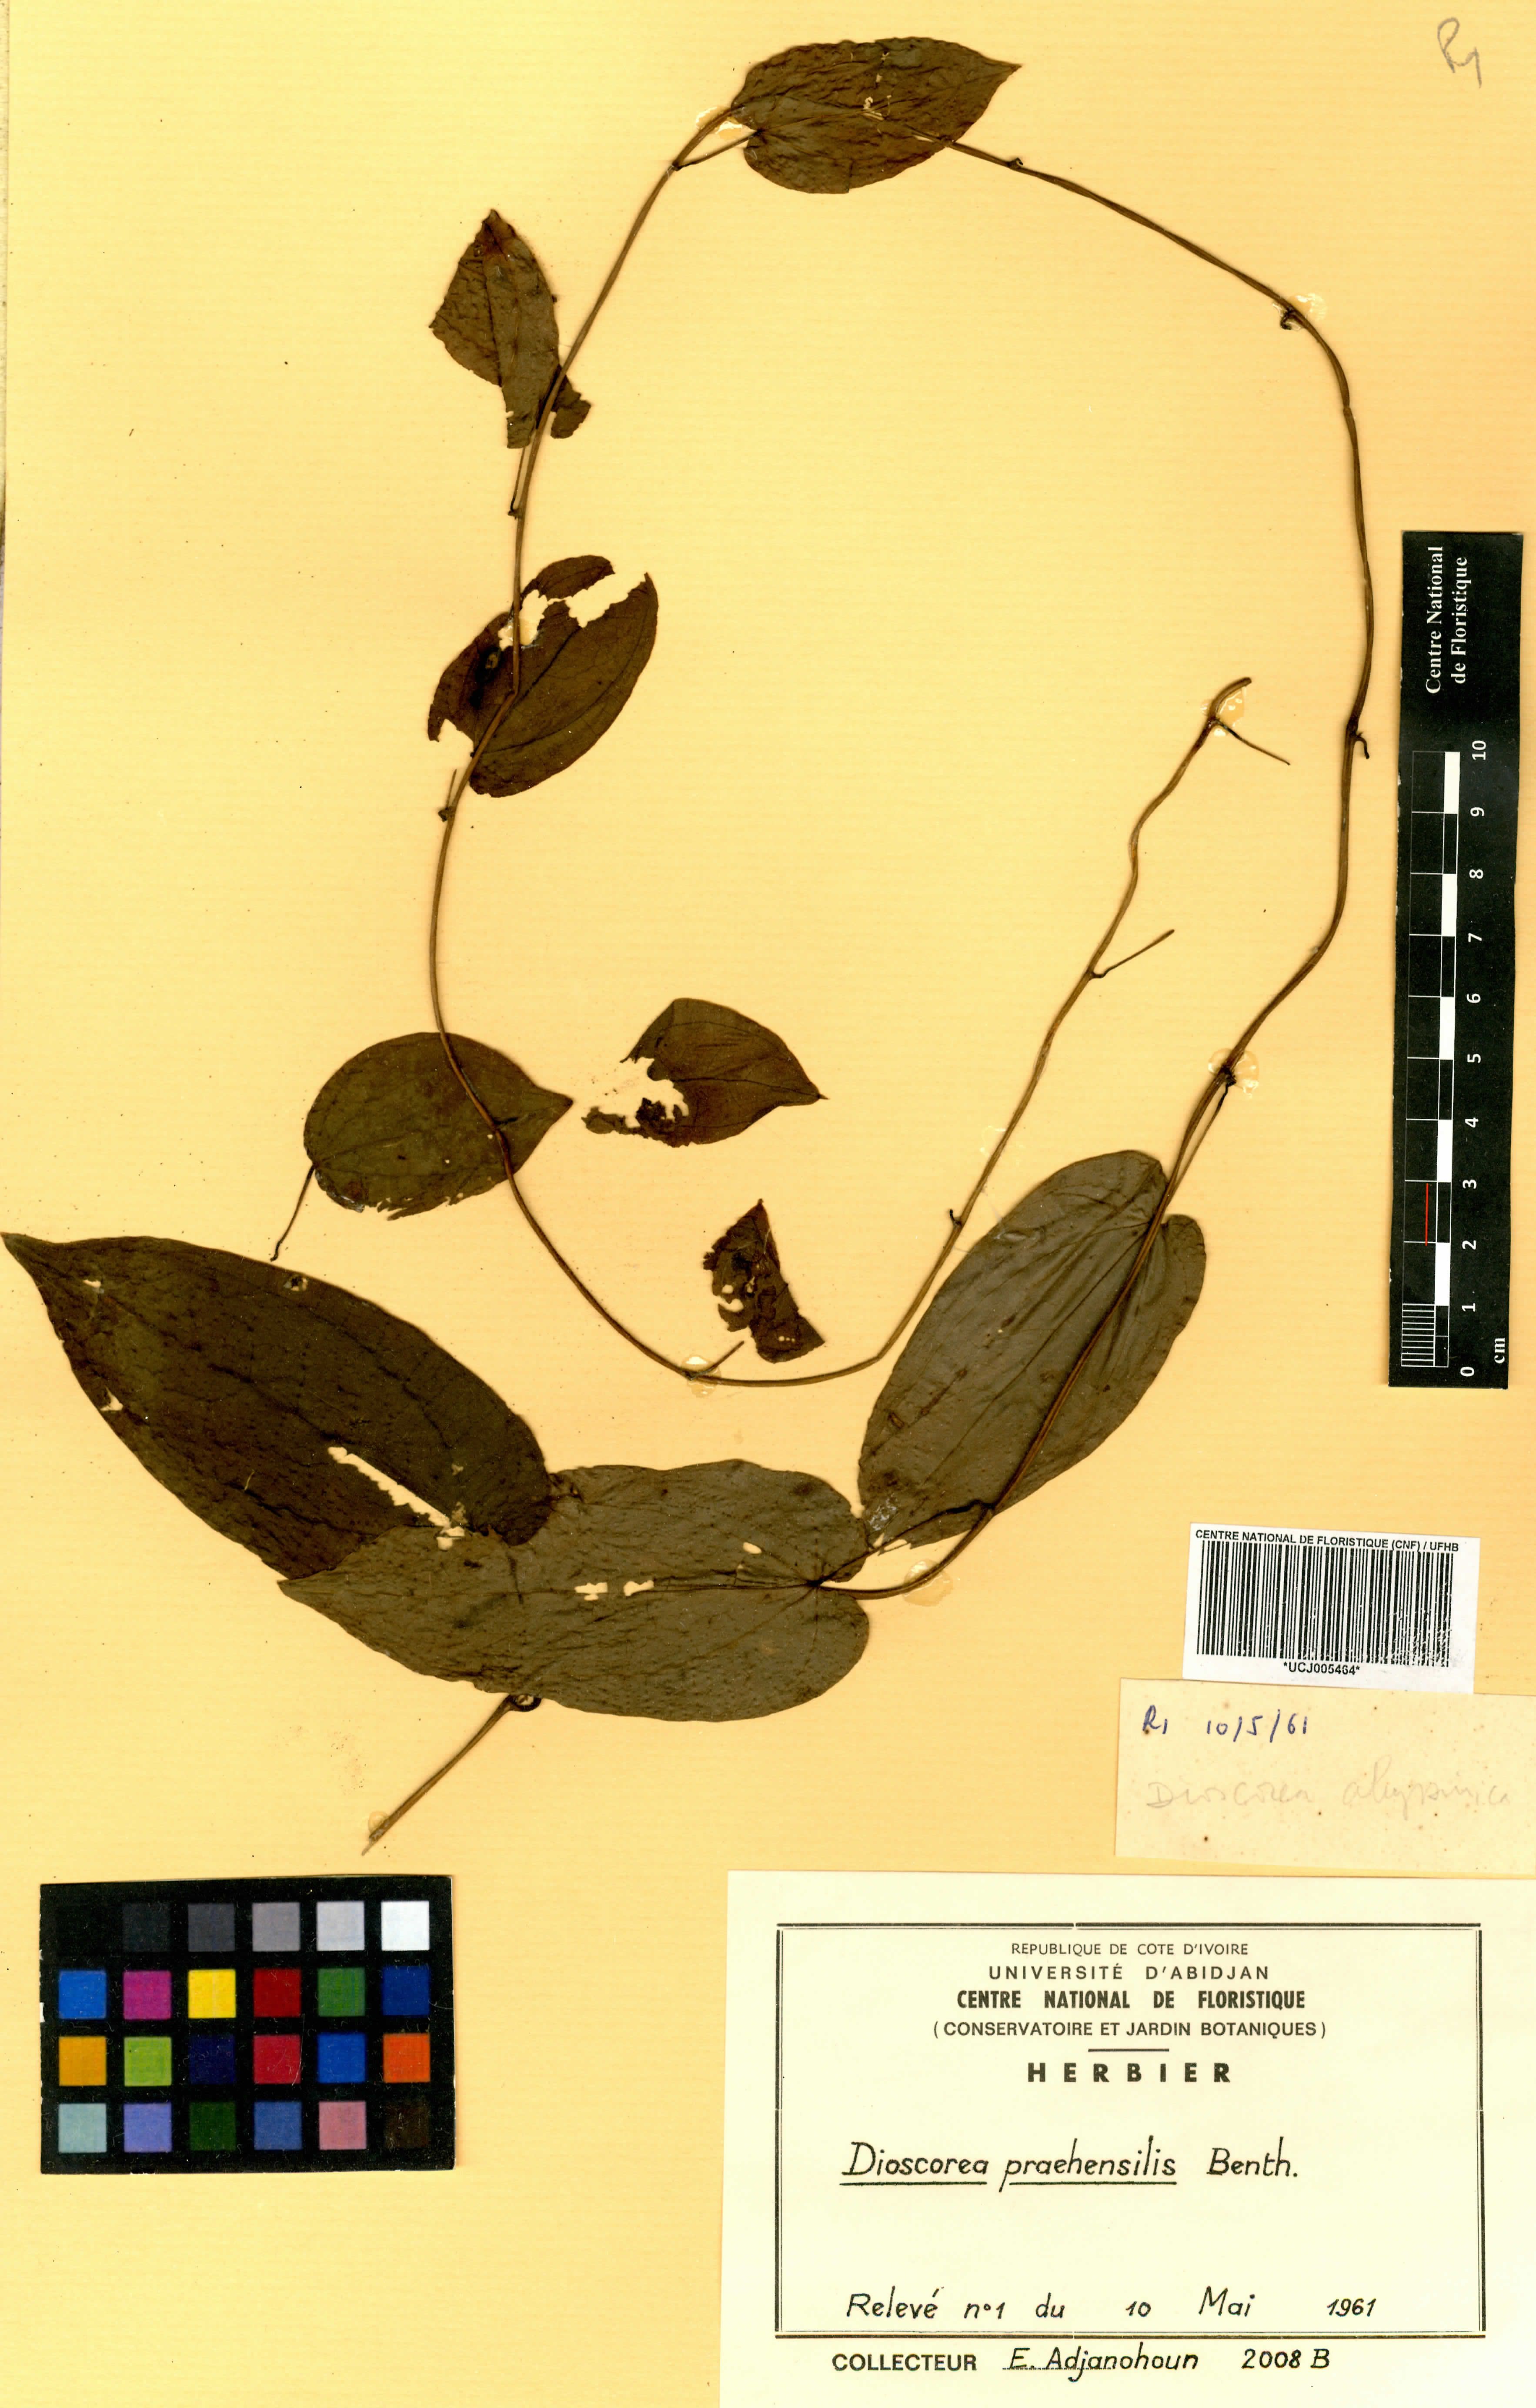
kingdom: Plantae
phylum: Tracheophyta
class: Liliopsida
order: Dioscoreales
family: Dioscoreaceae
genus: Dioscorea
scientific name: Dioscorea praehensilis
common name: Bush yam
